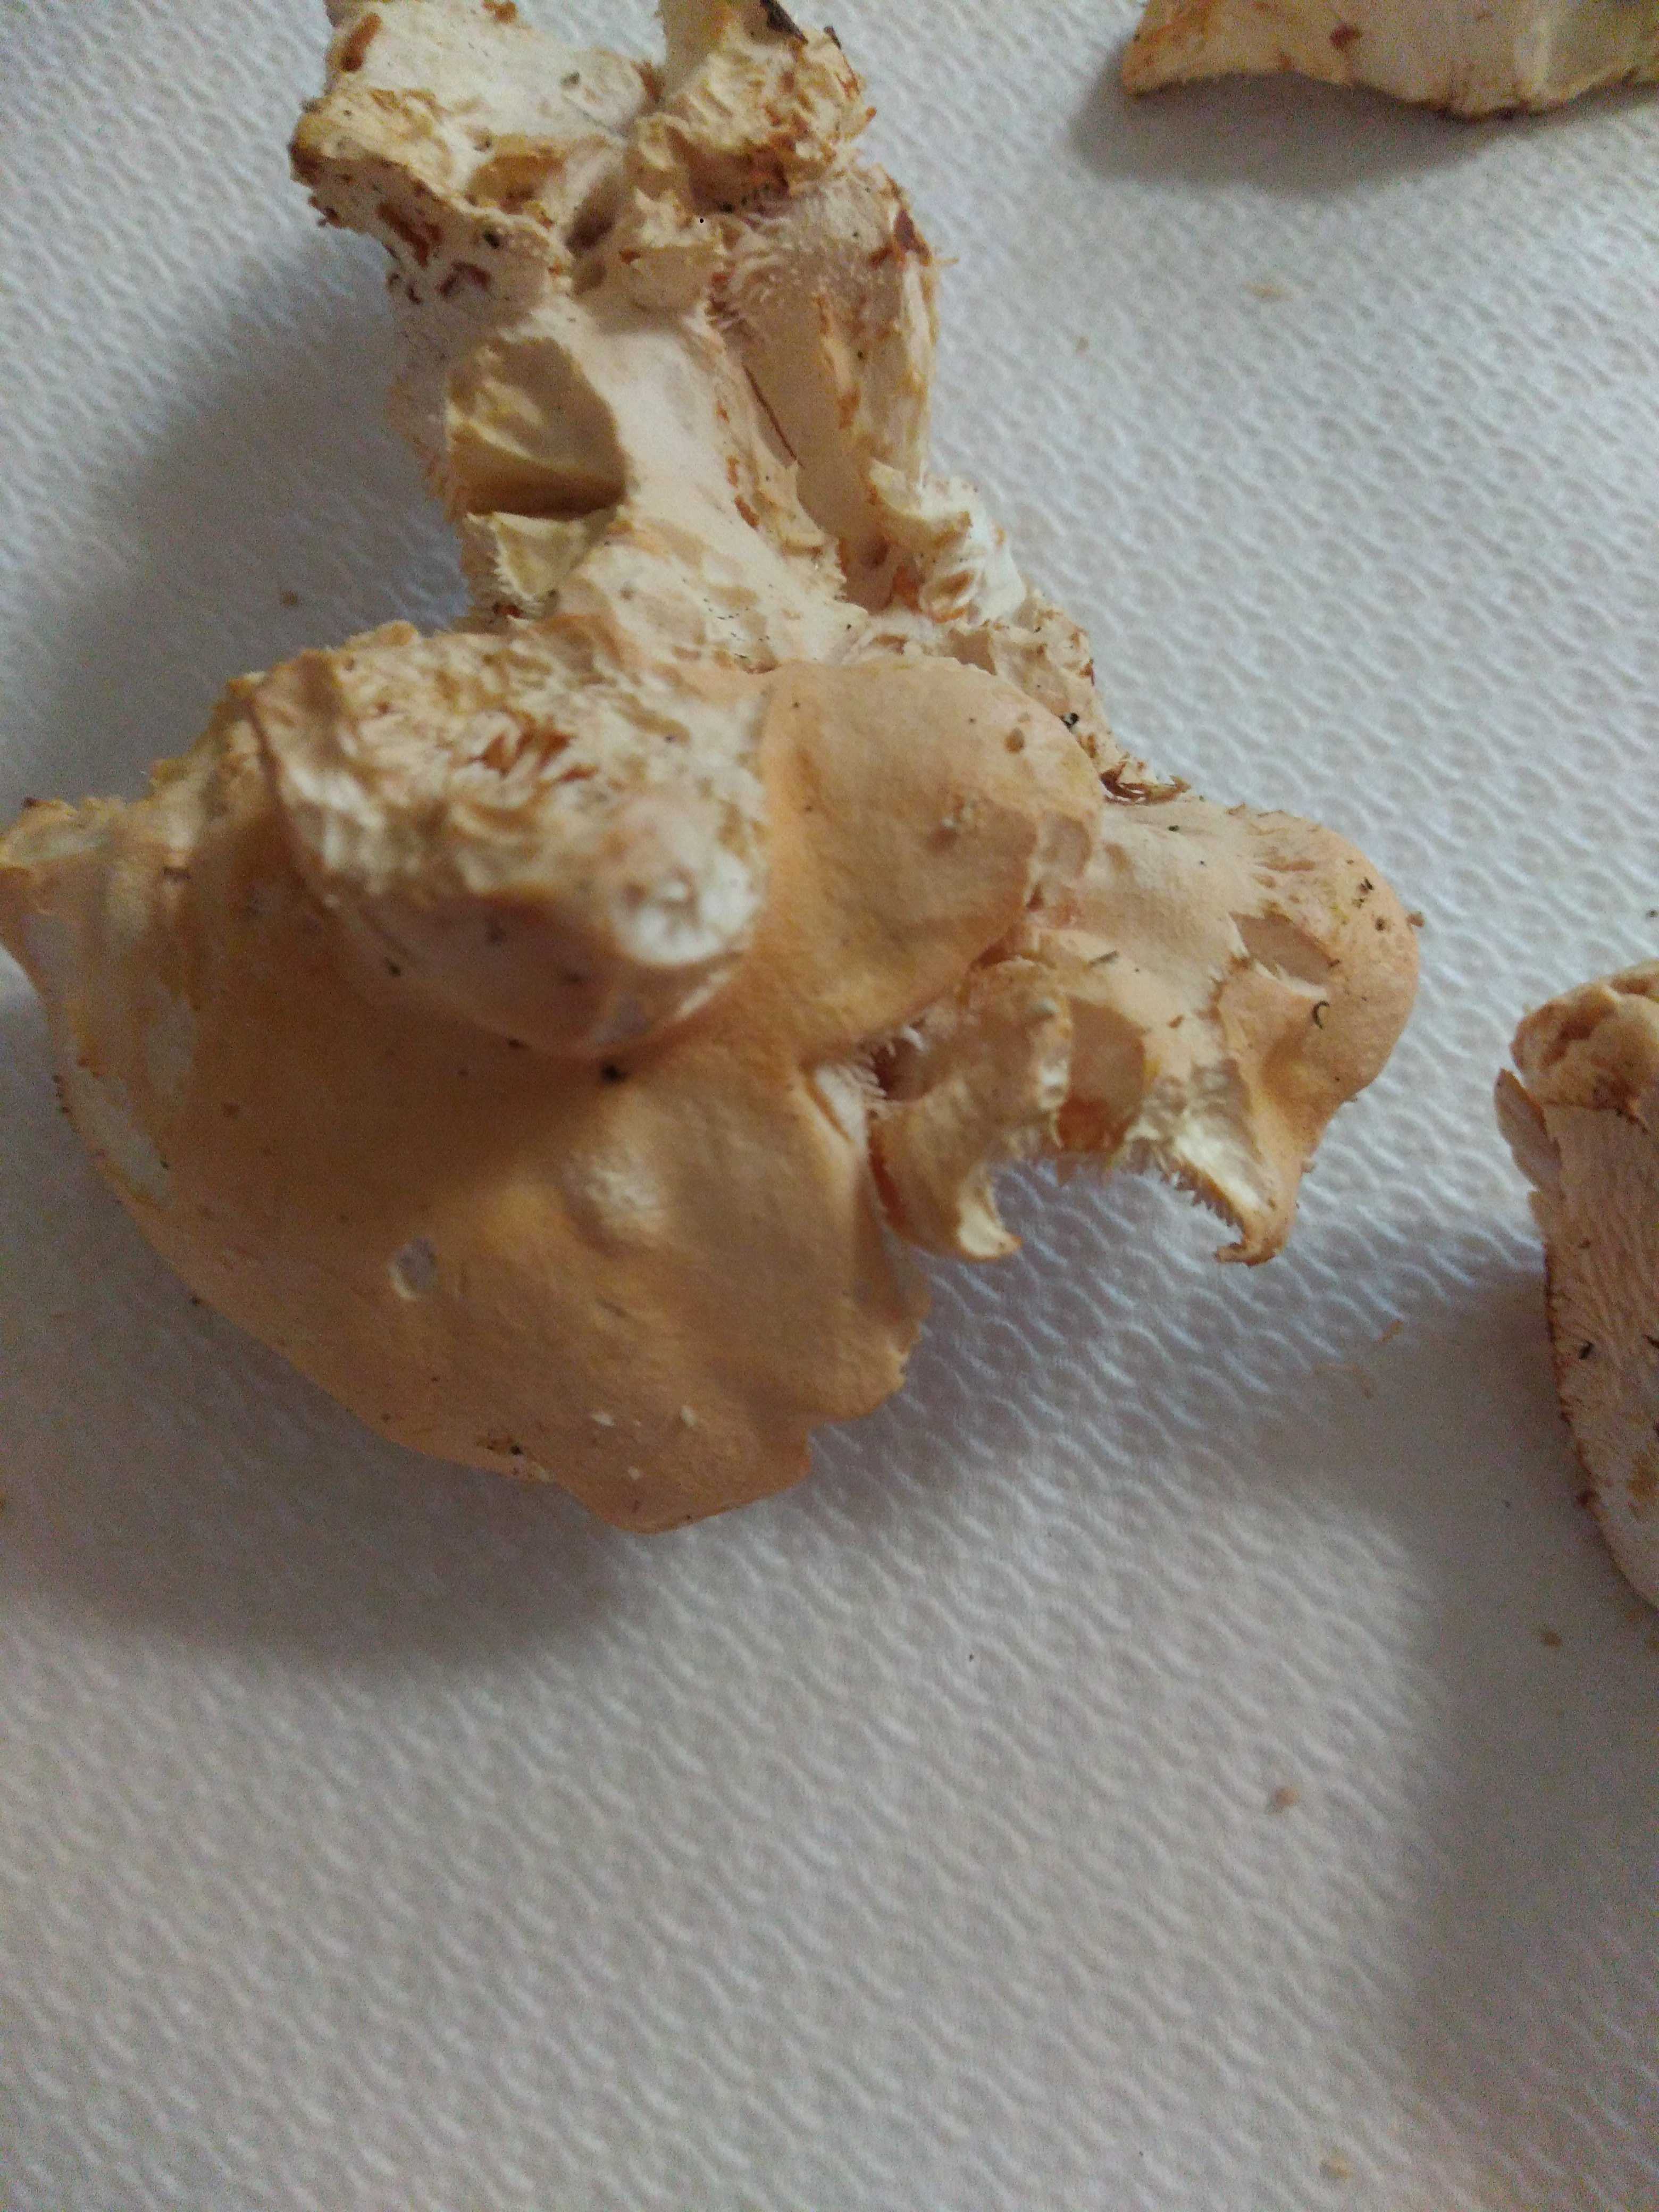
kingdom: Fungi
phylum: Basidiomycota
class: Agaricomycetes
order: Cantharellales
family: Hydnaceae
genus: Hydnum
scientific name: Hydnum
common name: pigsvamp
